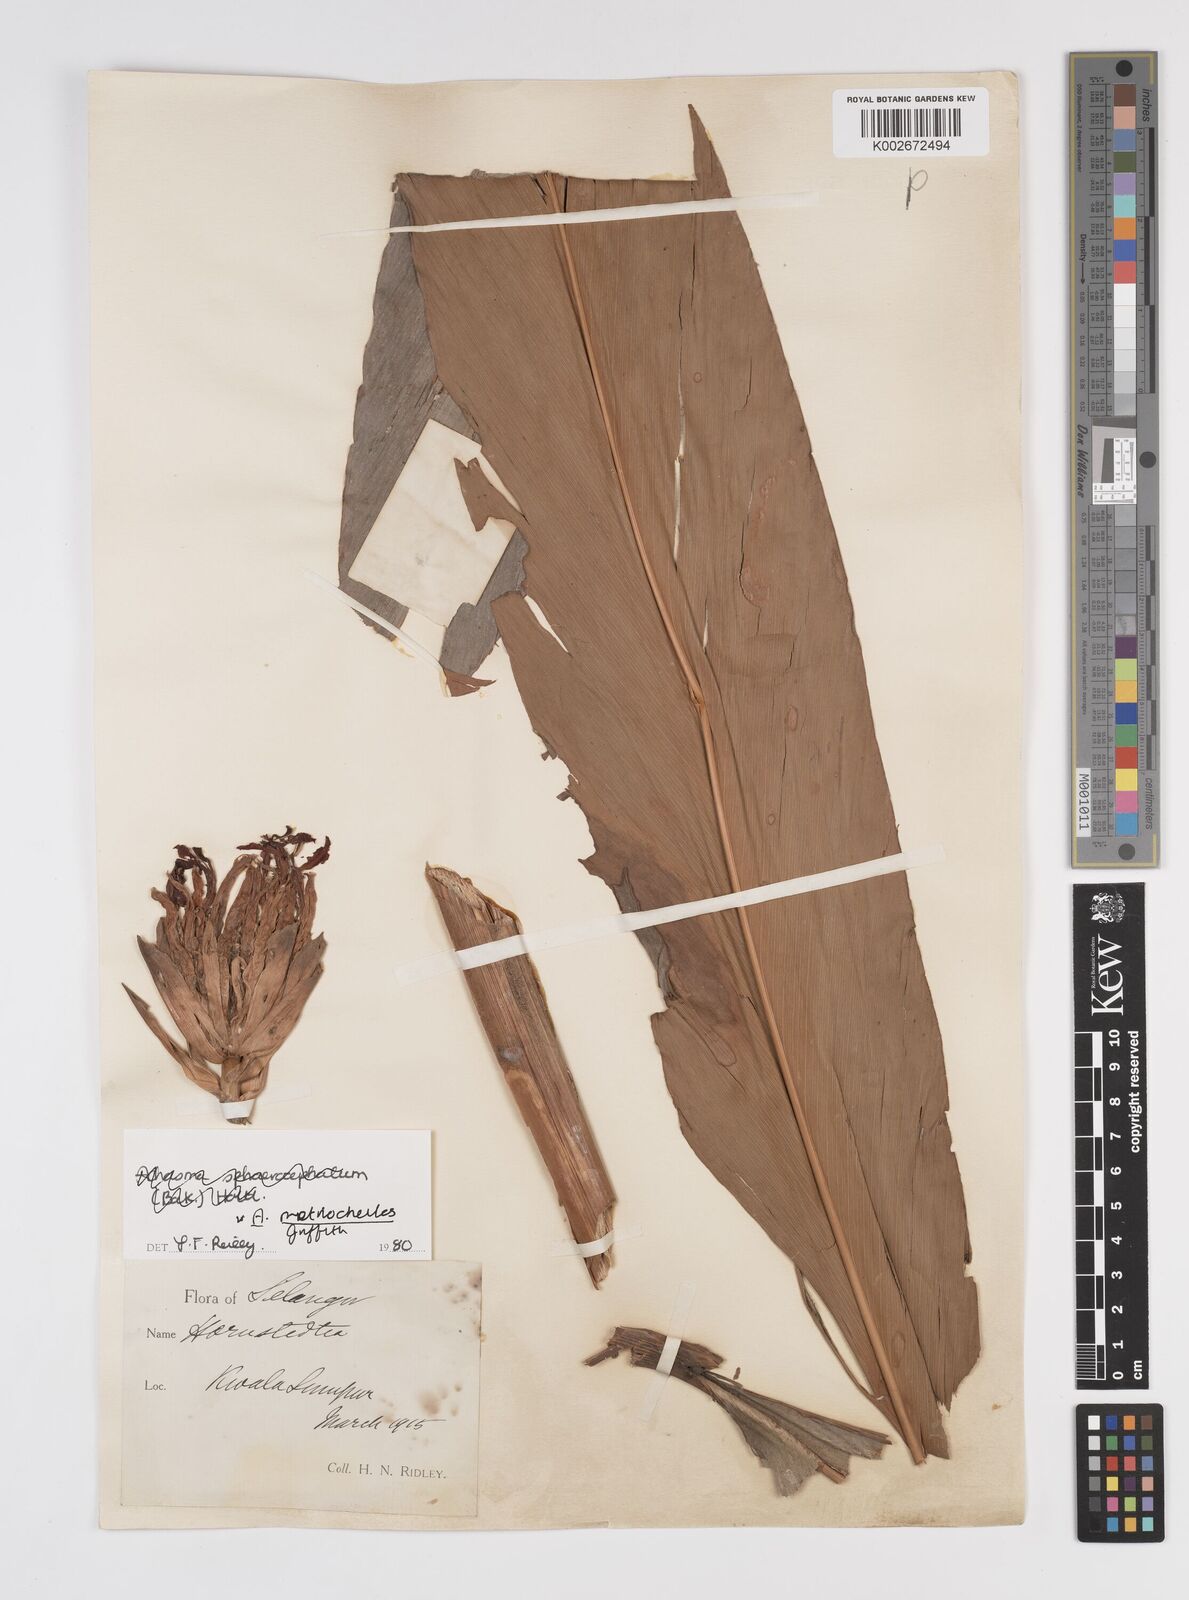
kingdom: Plantae
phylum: Tracheophyta
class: Liliopsida
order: Zingiberales
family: Zingiberaceae
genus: Etlingera
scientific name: Etlingera metriocheilos
